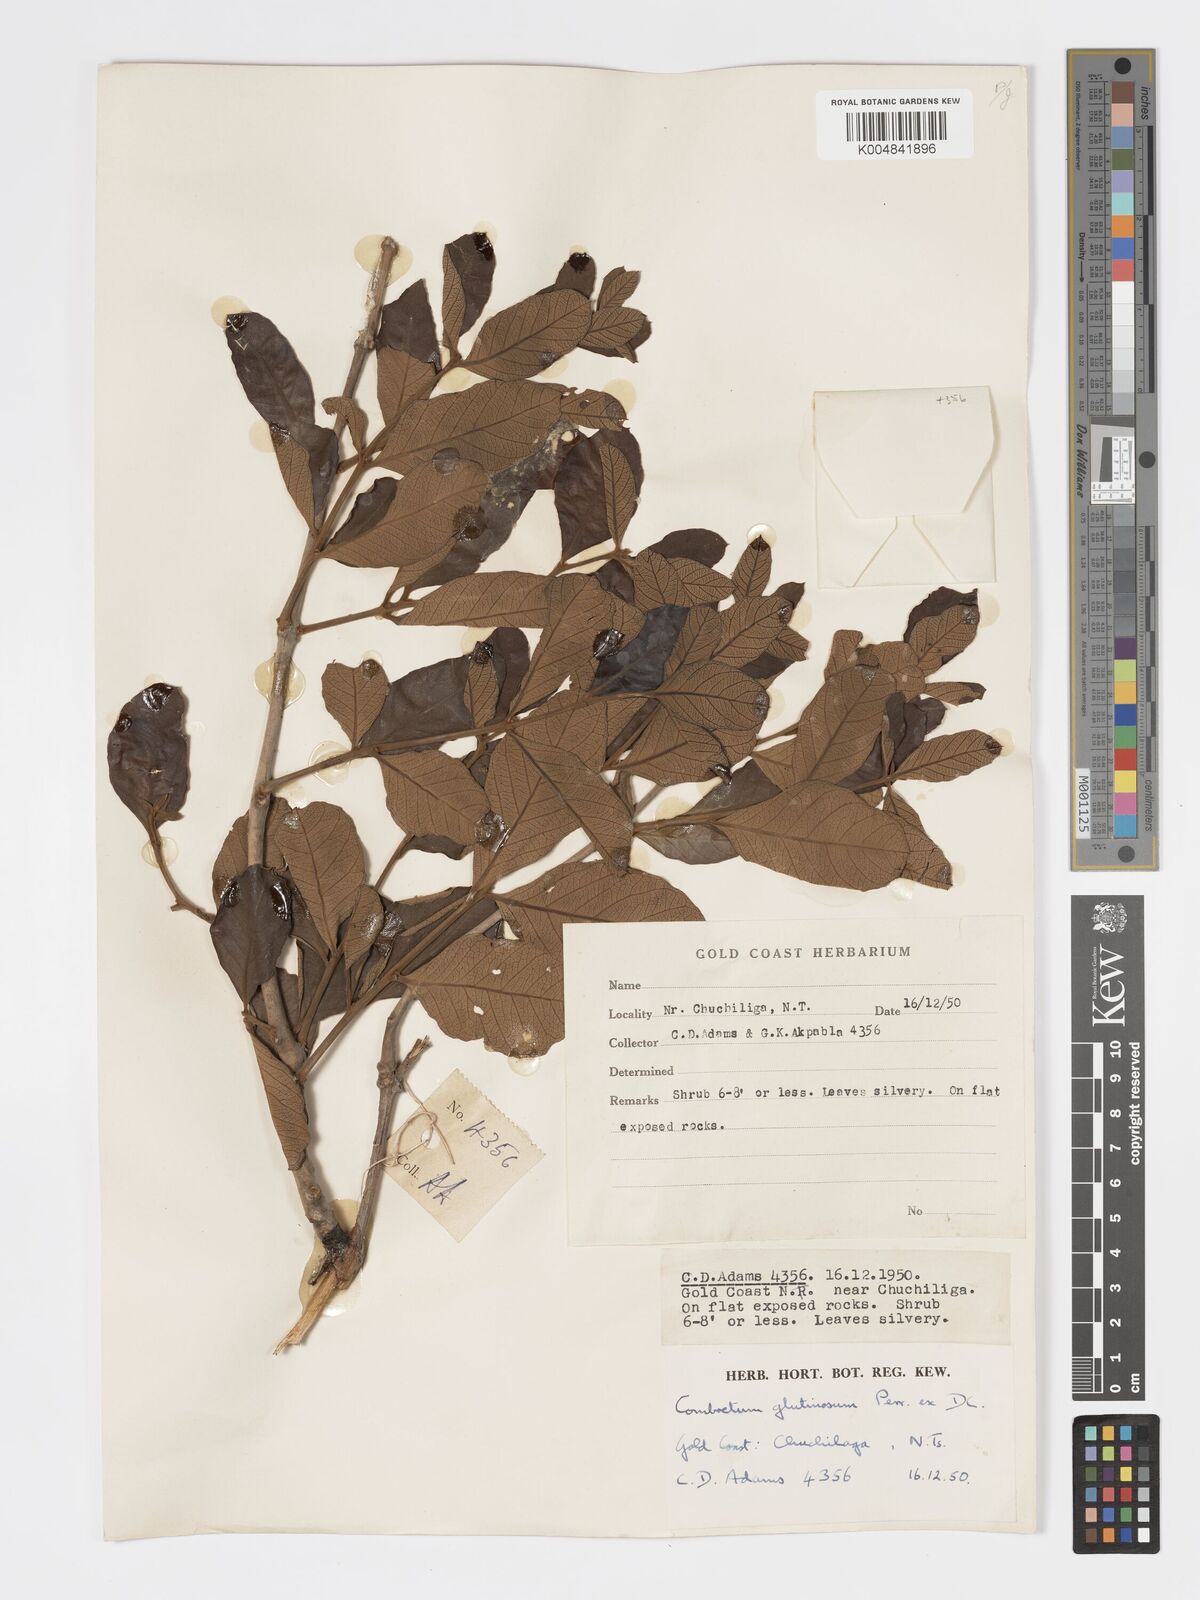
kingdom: Plantae
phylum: Tracheophyta
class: Magnoliopsida
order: Myrtales
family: Combretaceae
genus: Combretum
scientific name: Combretum
